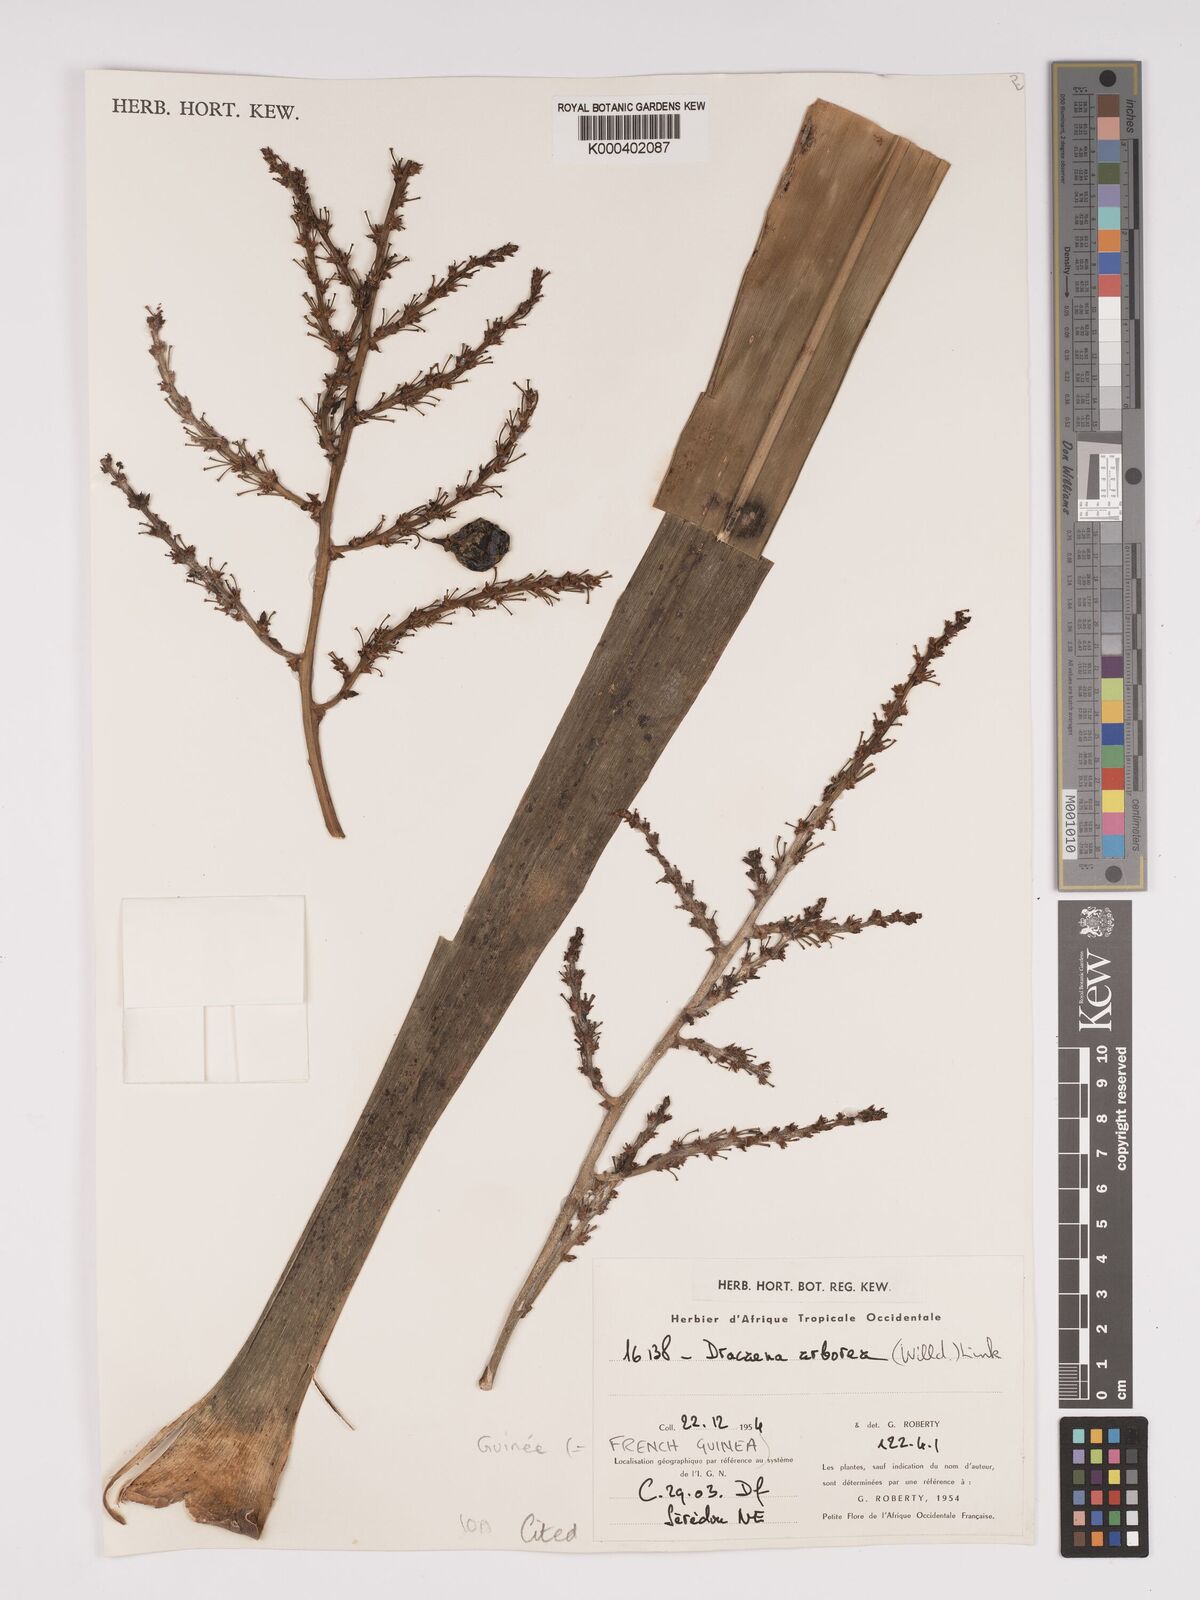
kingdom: Plantae
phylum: Tracheophyta
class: Liliopsida
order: Asparagales
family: Asparagaceae
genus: Dracaena
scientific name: Dracaena arborea
